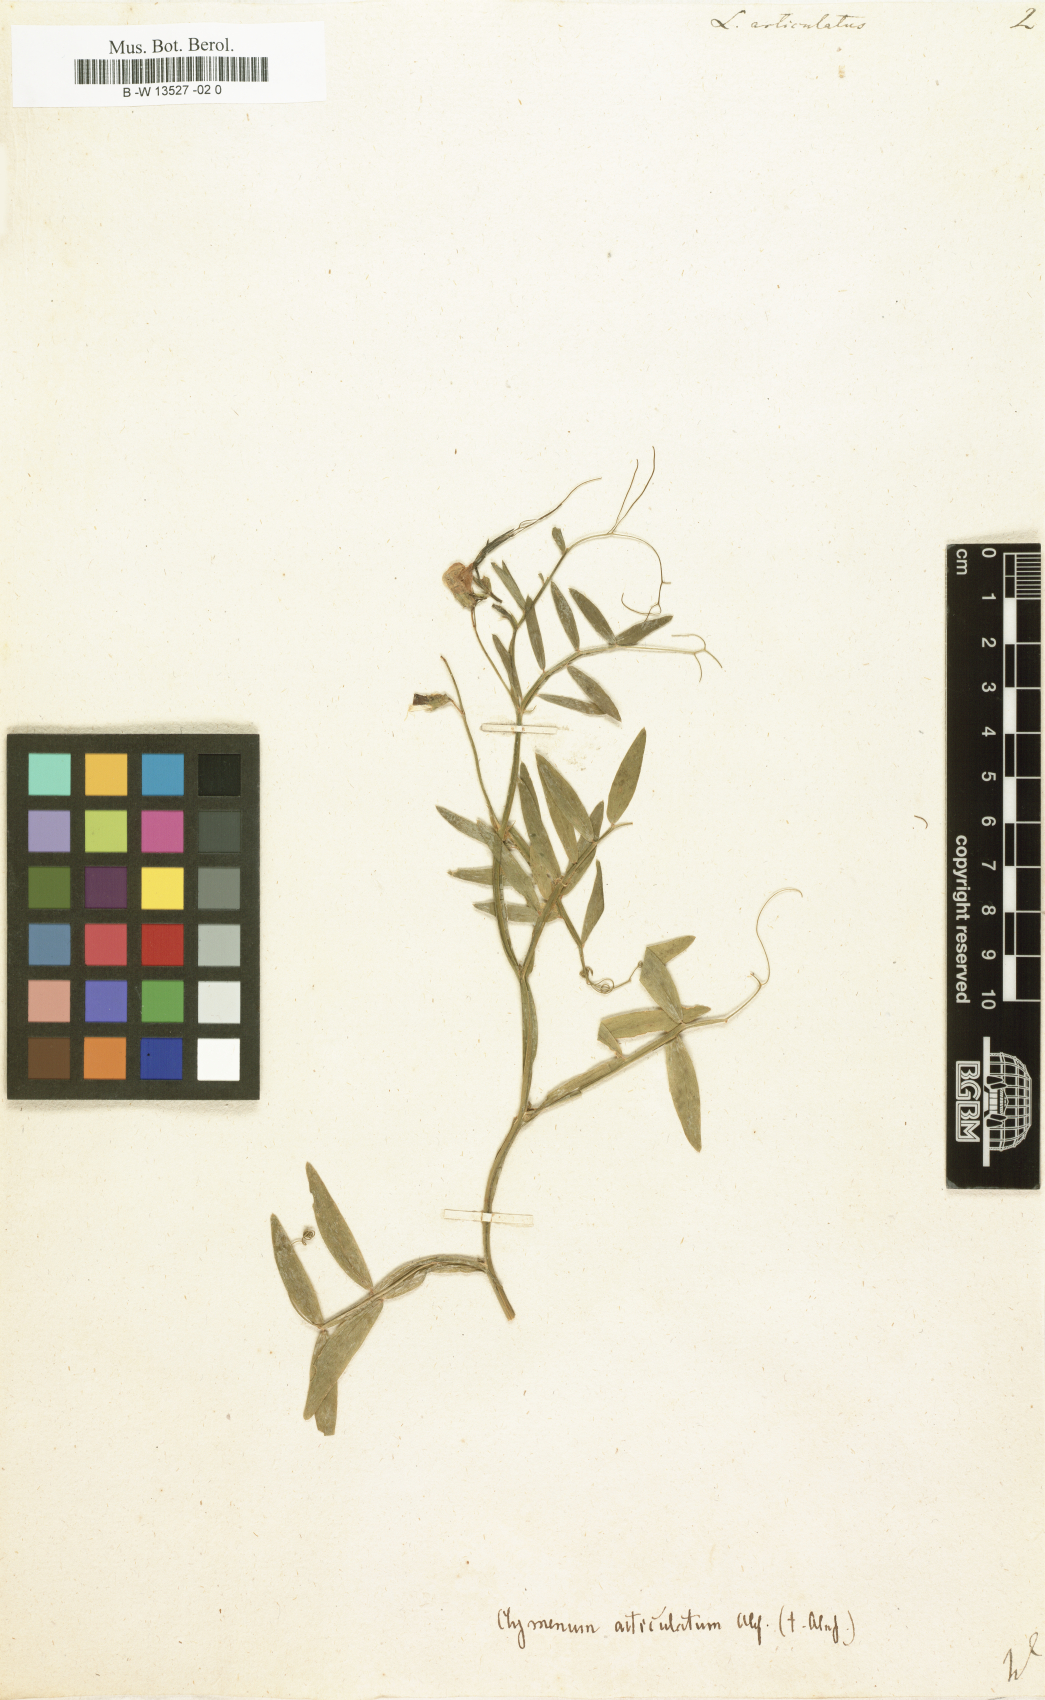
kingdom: Plantae
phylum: Tracheophyta
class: Magnoliopsida
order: Fabales
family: Fabaceae
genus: Lathyrus
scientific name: Lathyrus articulatus
